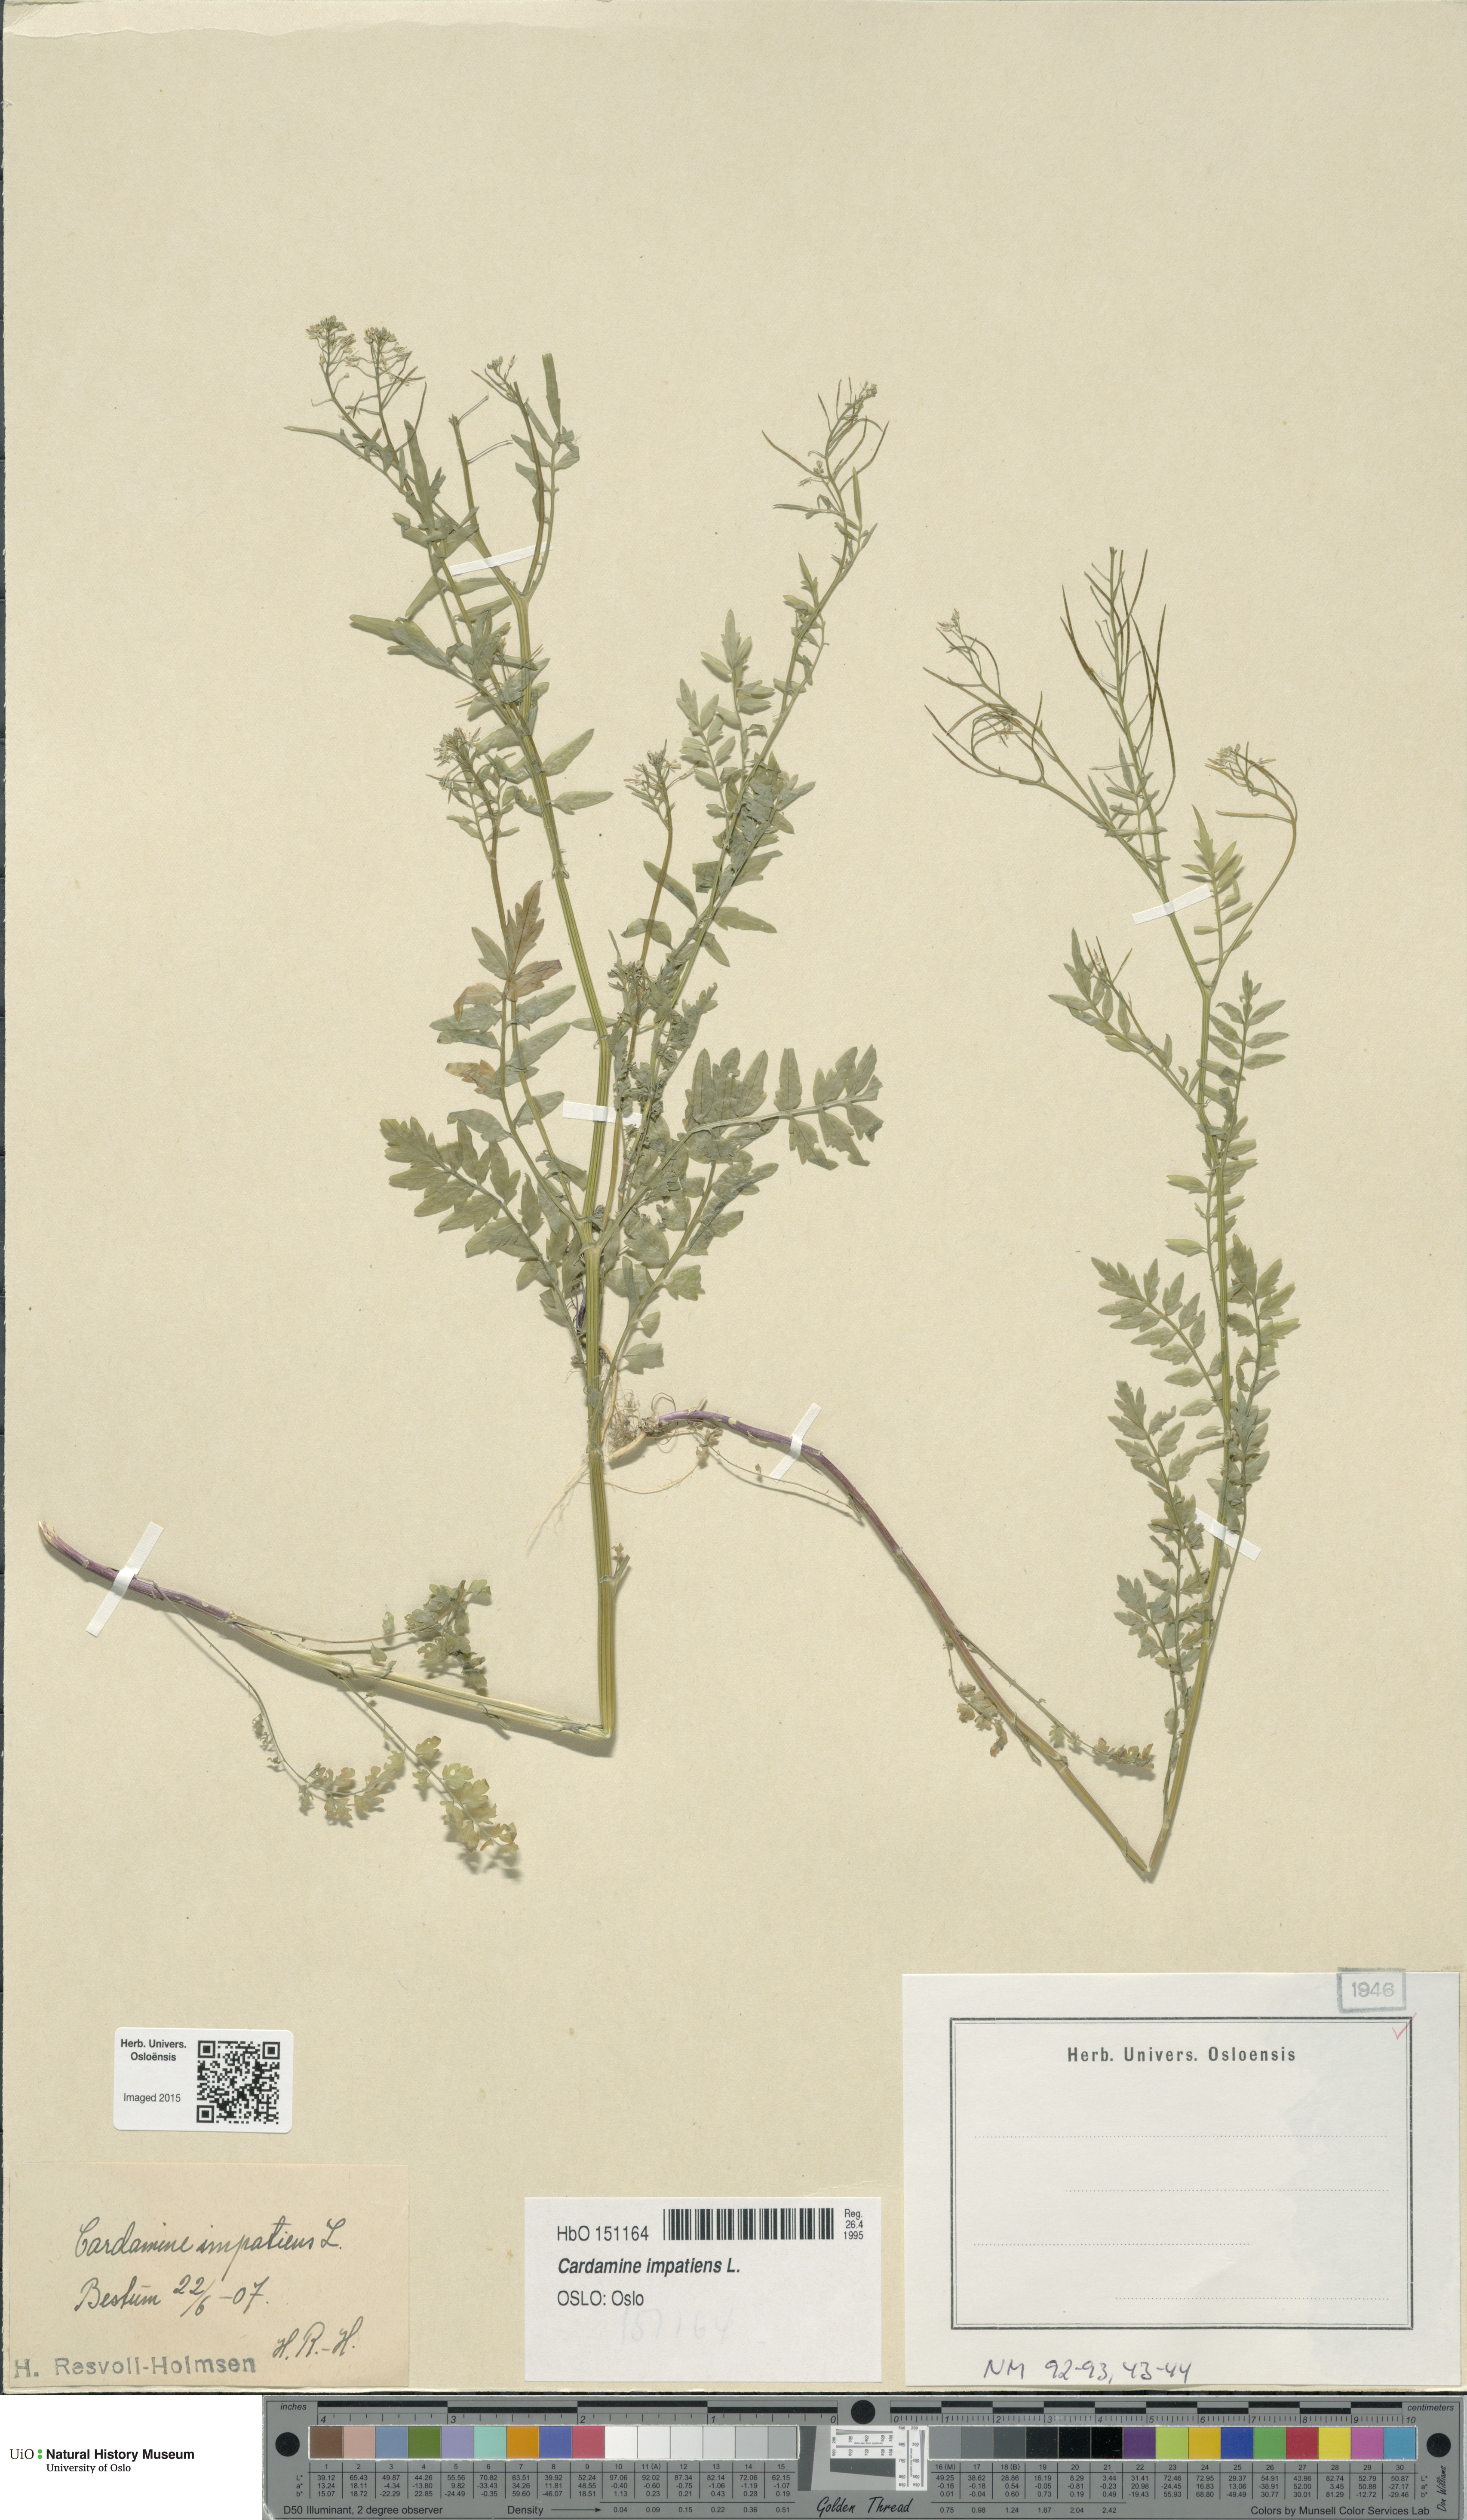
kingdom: Plantae
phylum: Tracheophyta
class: Magnoliopsida
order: Brassicales
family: Brassicaceae
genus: Cardamine
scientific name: Cardamine impatiens
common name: Narrow-leaved bitter-cress
